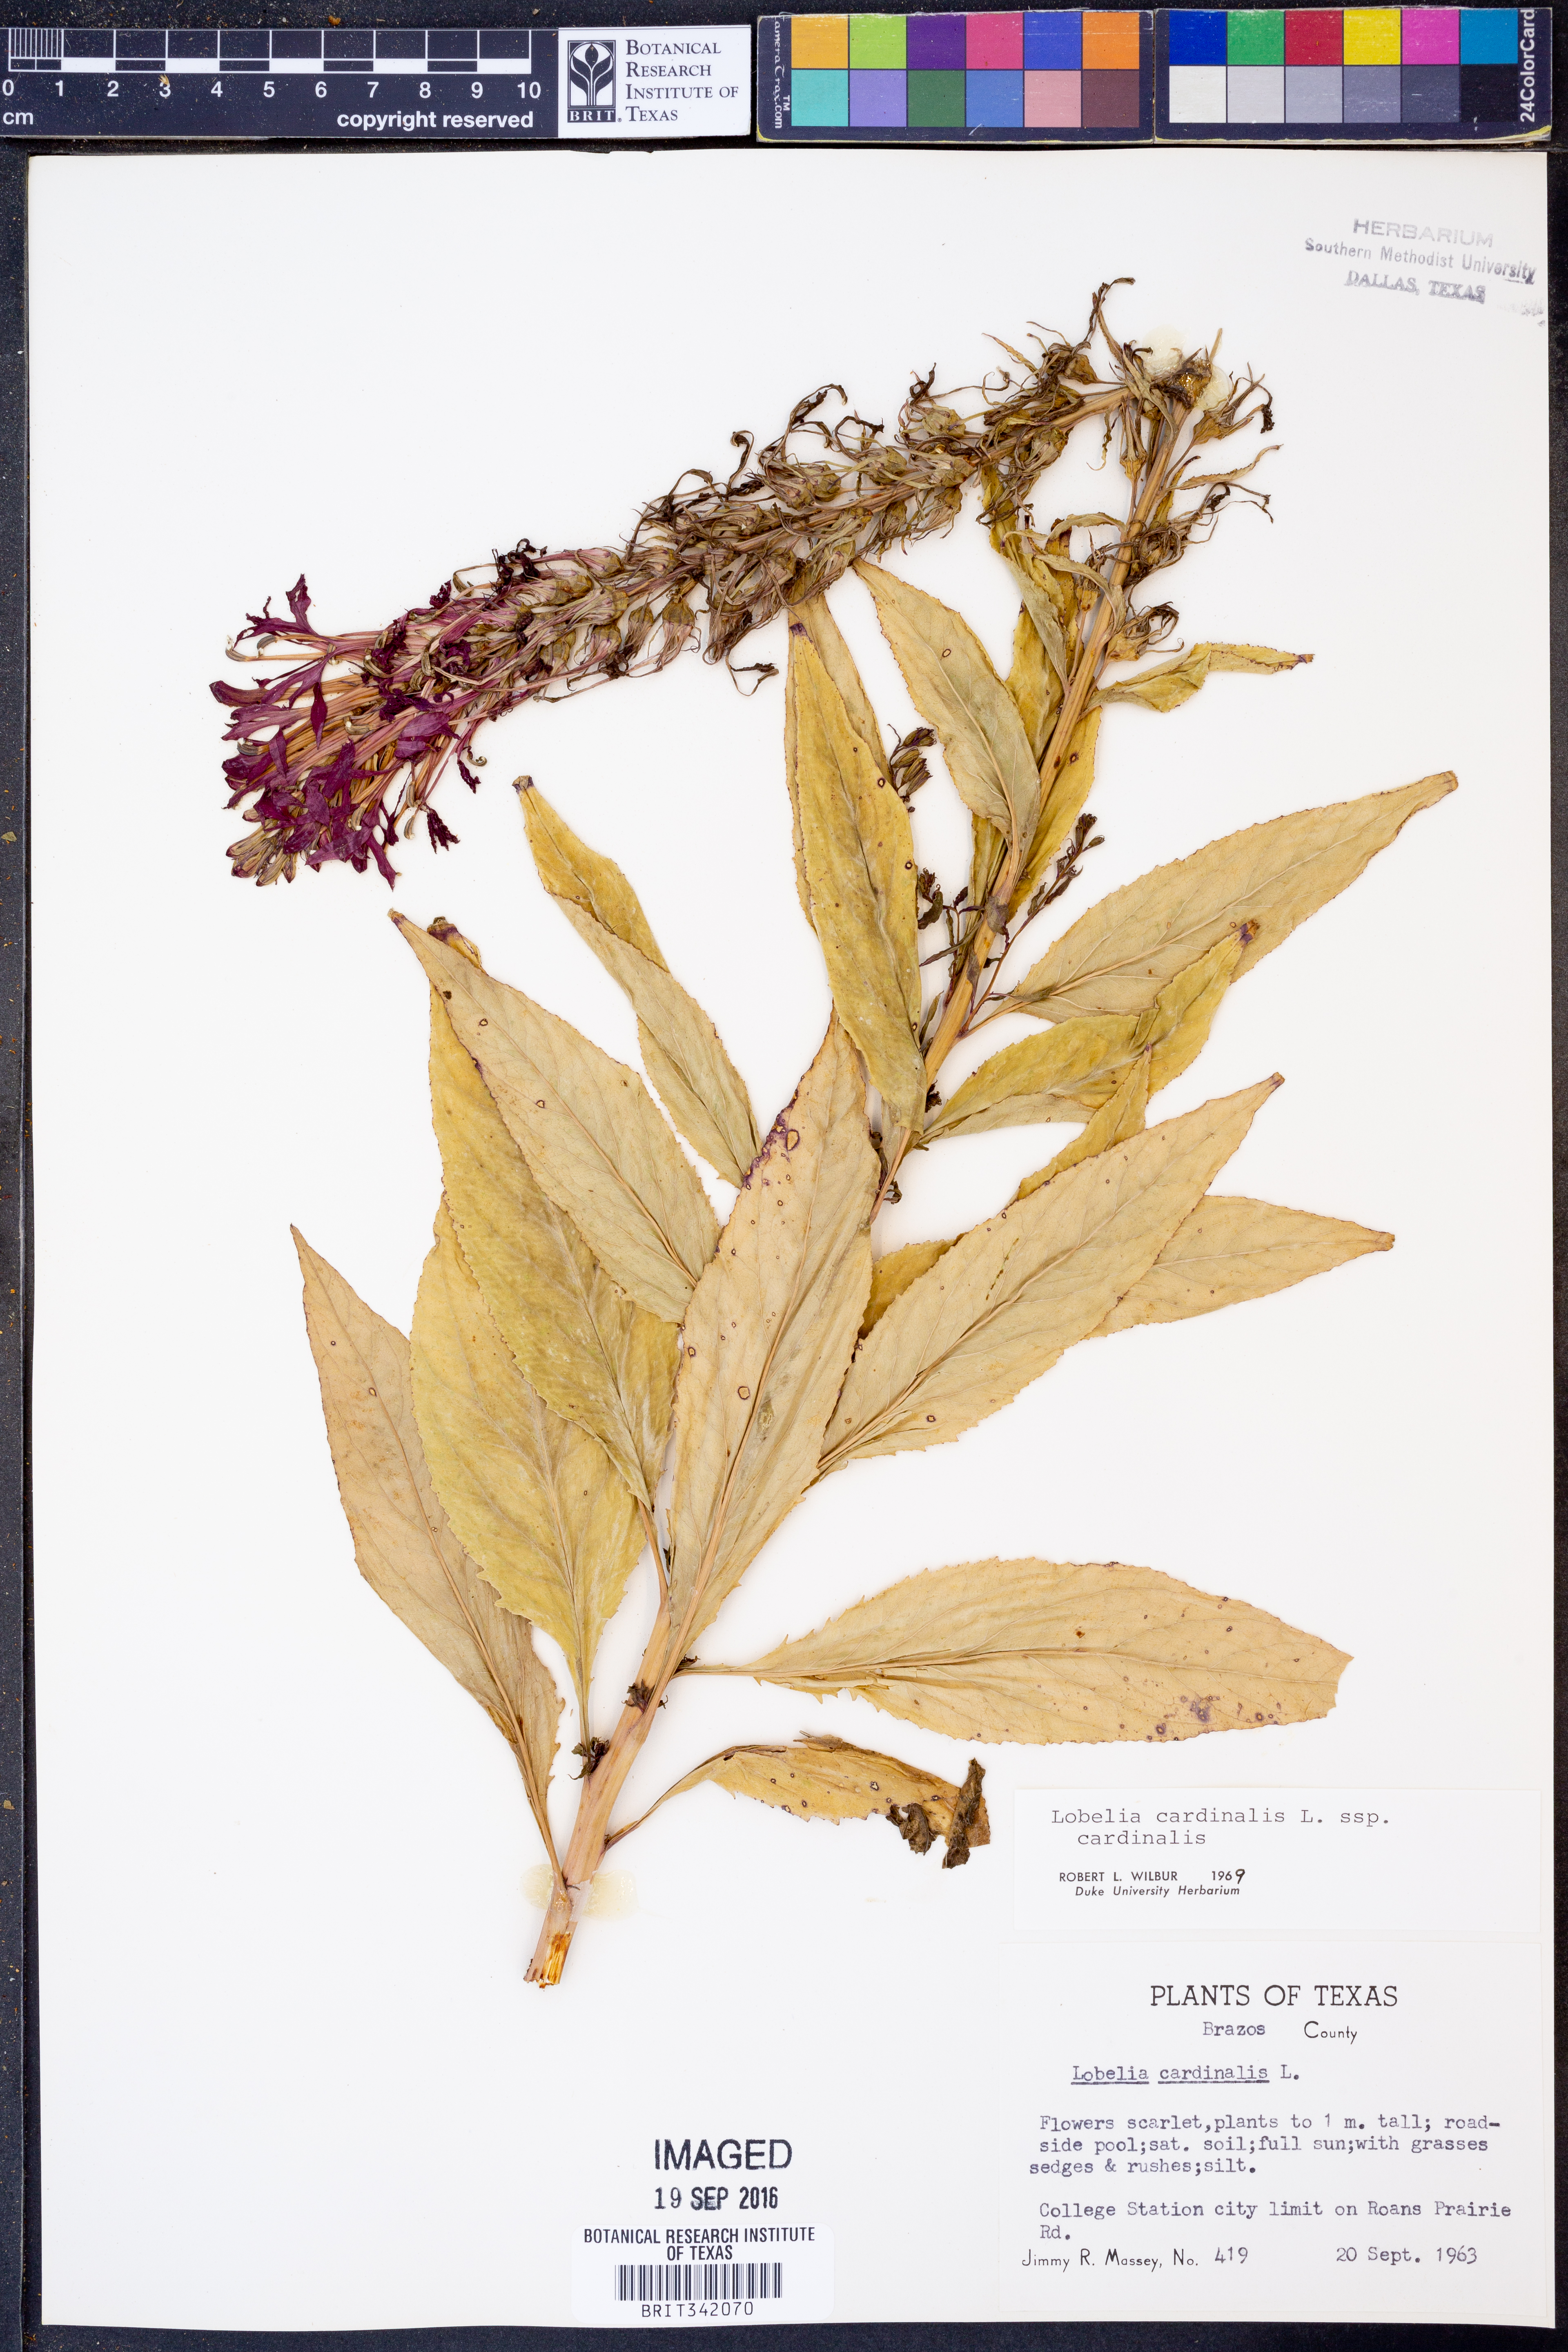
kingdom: Plantae
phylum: Tracheophyta
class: Magnoliopsida
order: Asterales
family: Campanulaceae
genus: Lobelia
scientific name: Lobelia cardinalis
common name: Cardinal flower
